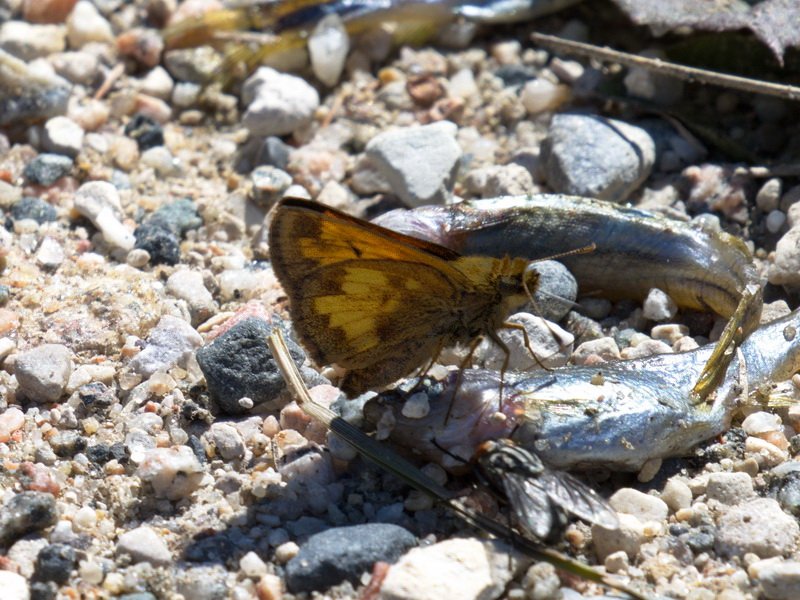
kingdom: Animalia
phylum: Arthropoda
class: Insecta
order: Lepidoptera
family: Hesperiidae
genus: Lon
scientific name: Lon hobomok
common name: Hobomok Skipper
